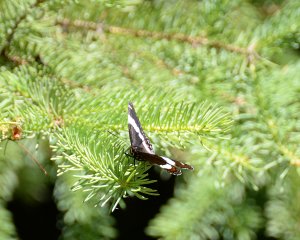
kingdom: Animalia
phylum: Arthropoda
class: Insecta
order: Lepidoptera
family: Nymphalidae
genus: Limenitis
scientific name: Limenitis arthemis
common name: Red-spotted Admiral
